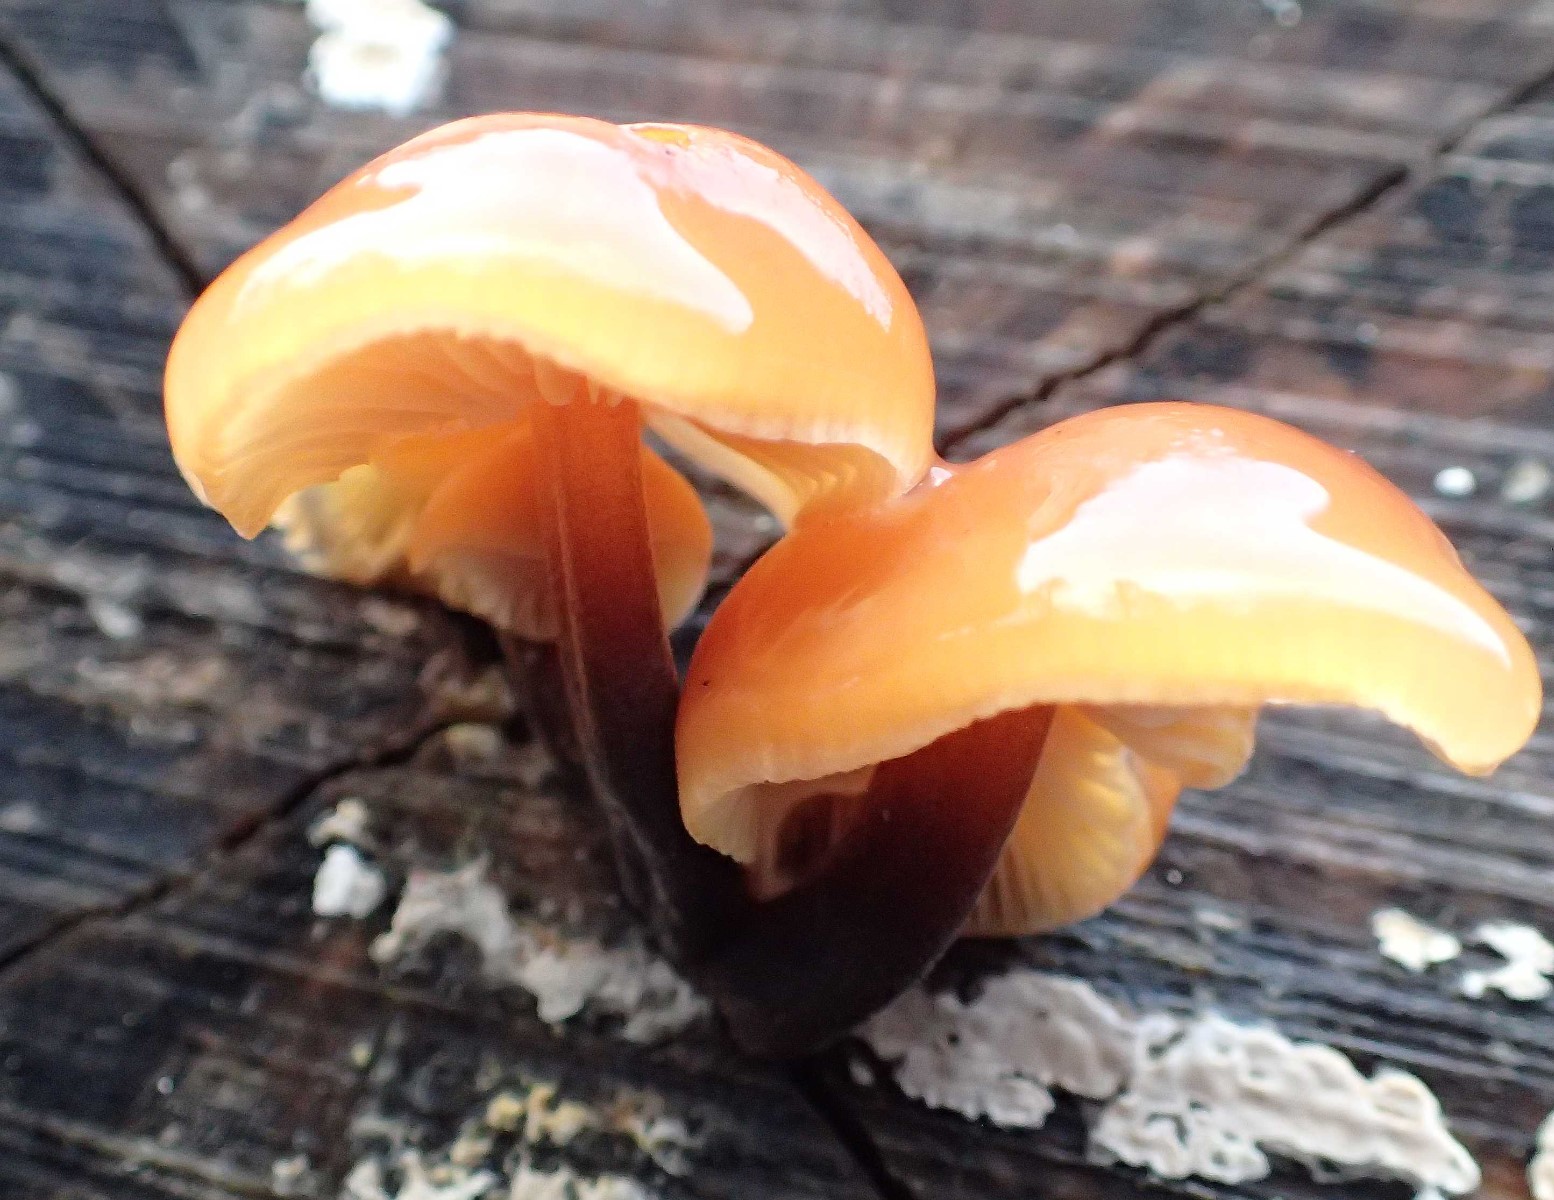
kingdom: Fungi
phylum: Basidiomycota
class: Agaricomycetes
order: Agaricales
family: Physalacriaceae
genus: Flammulina
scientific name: Flammulina velutipes
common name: gul fløjlsfod
